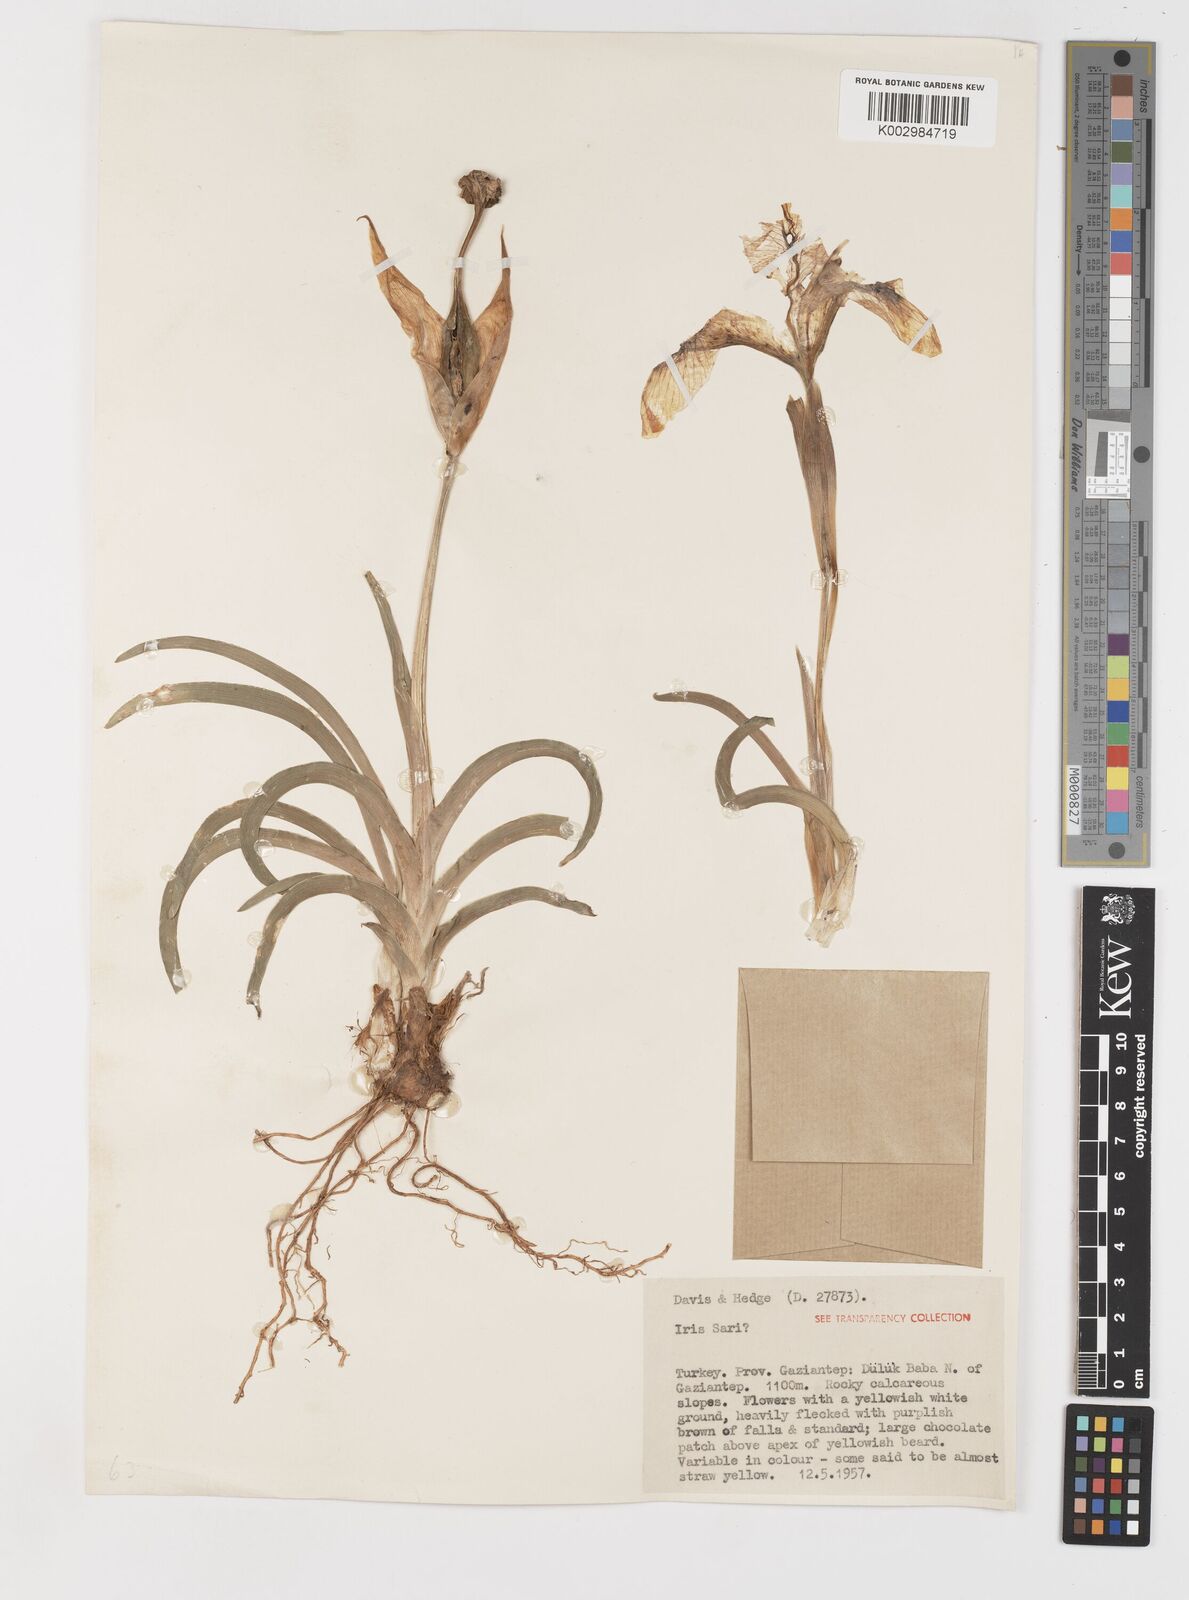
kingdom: Plantae
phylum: Tracheophyta
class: Liliopsida
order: Asparagales
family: Iridaceae
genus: Iris
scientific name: Iris sari
